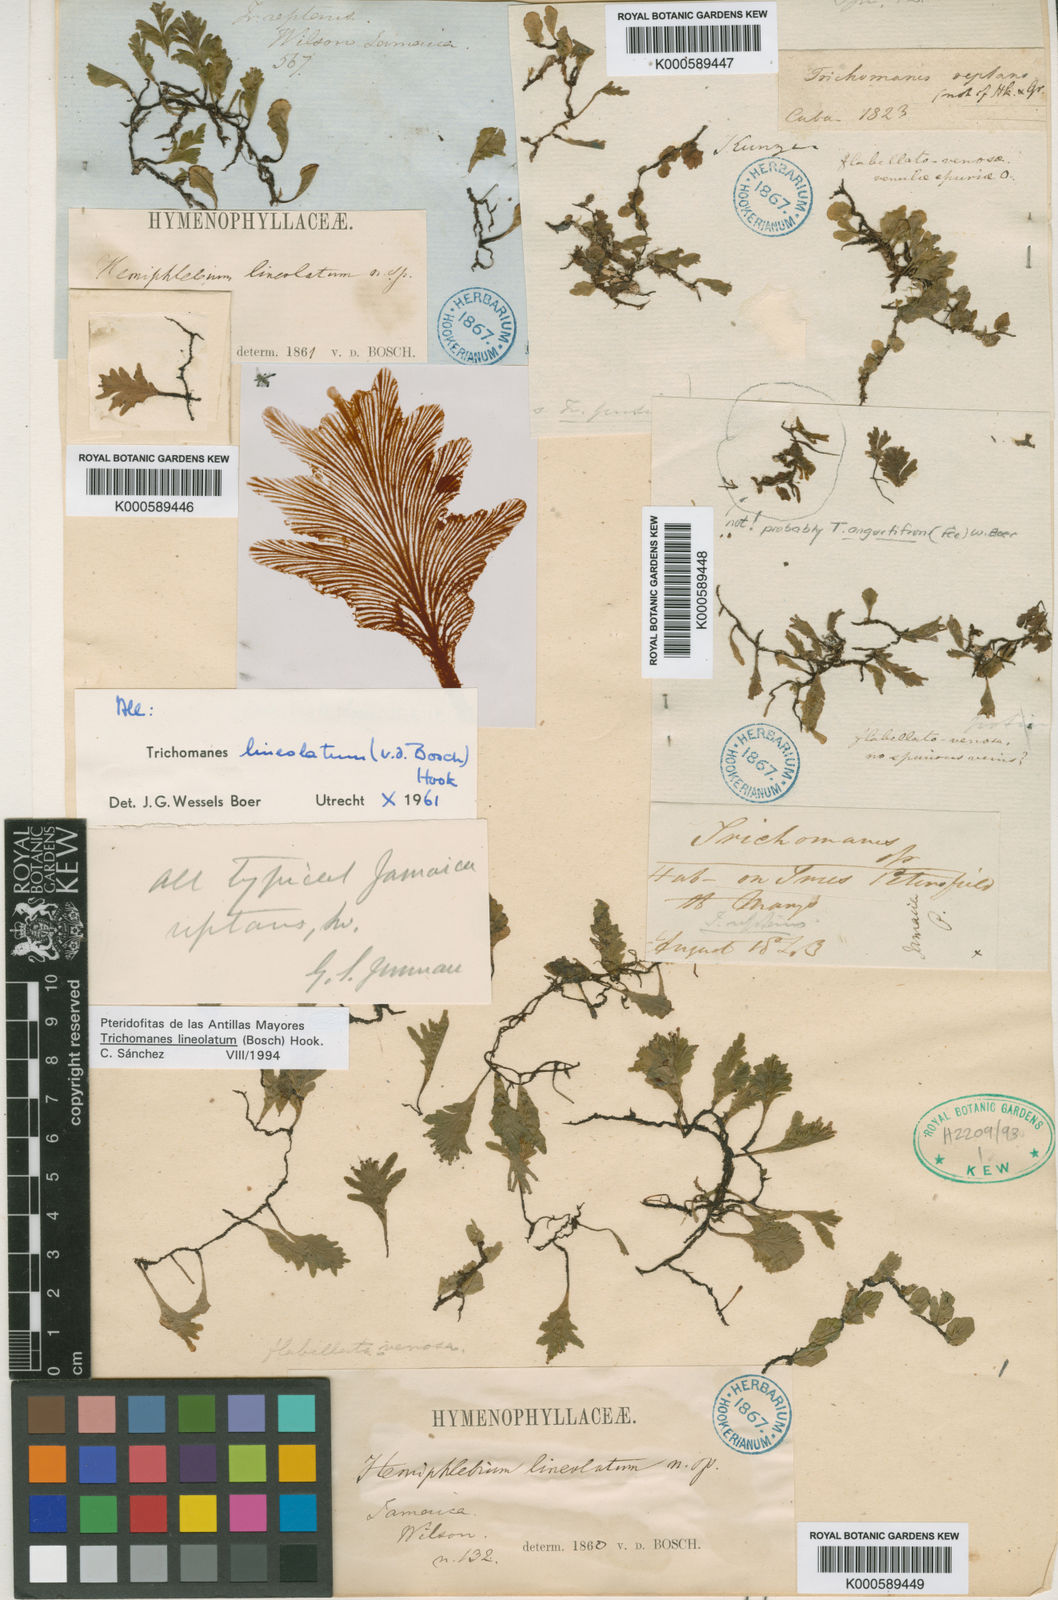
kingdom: Plantae
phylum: Tracheophyta
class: Polypodiopsida
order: Hymenophyllales
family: Hymenophyllaceae
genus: Didymoglossum
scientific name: Didymoglossum lineolatum
